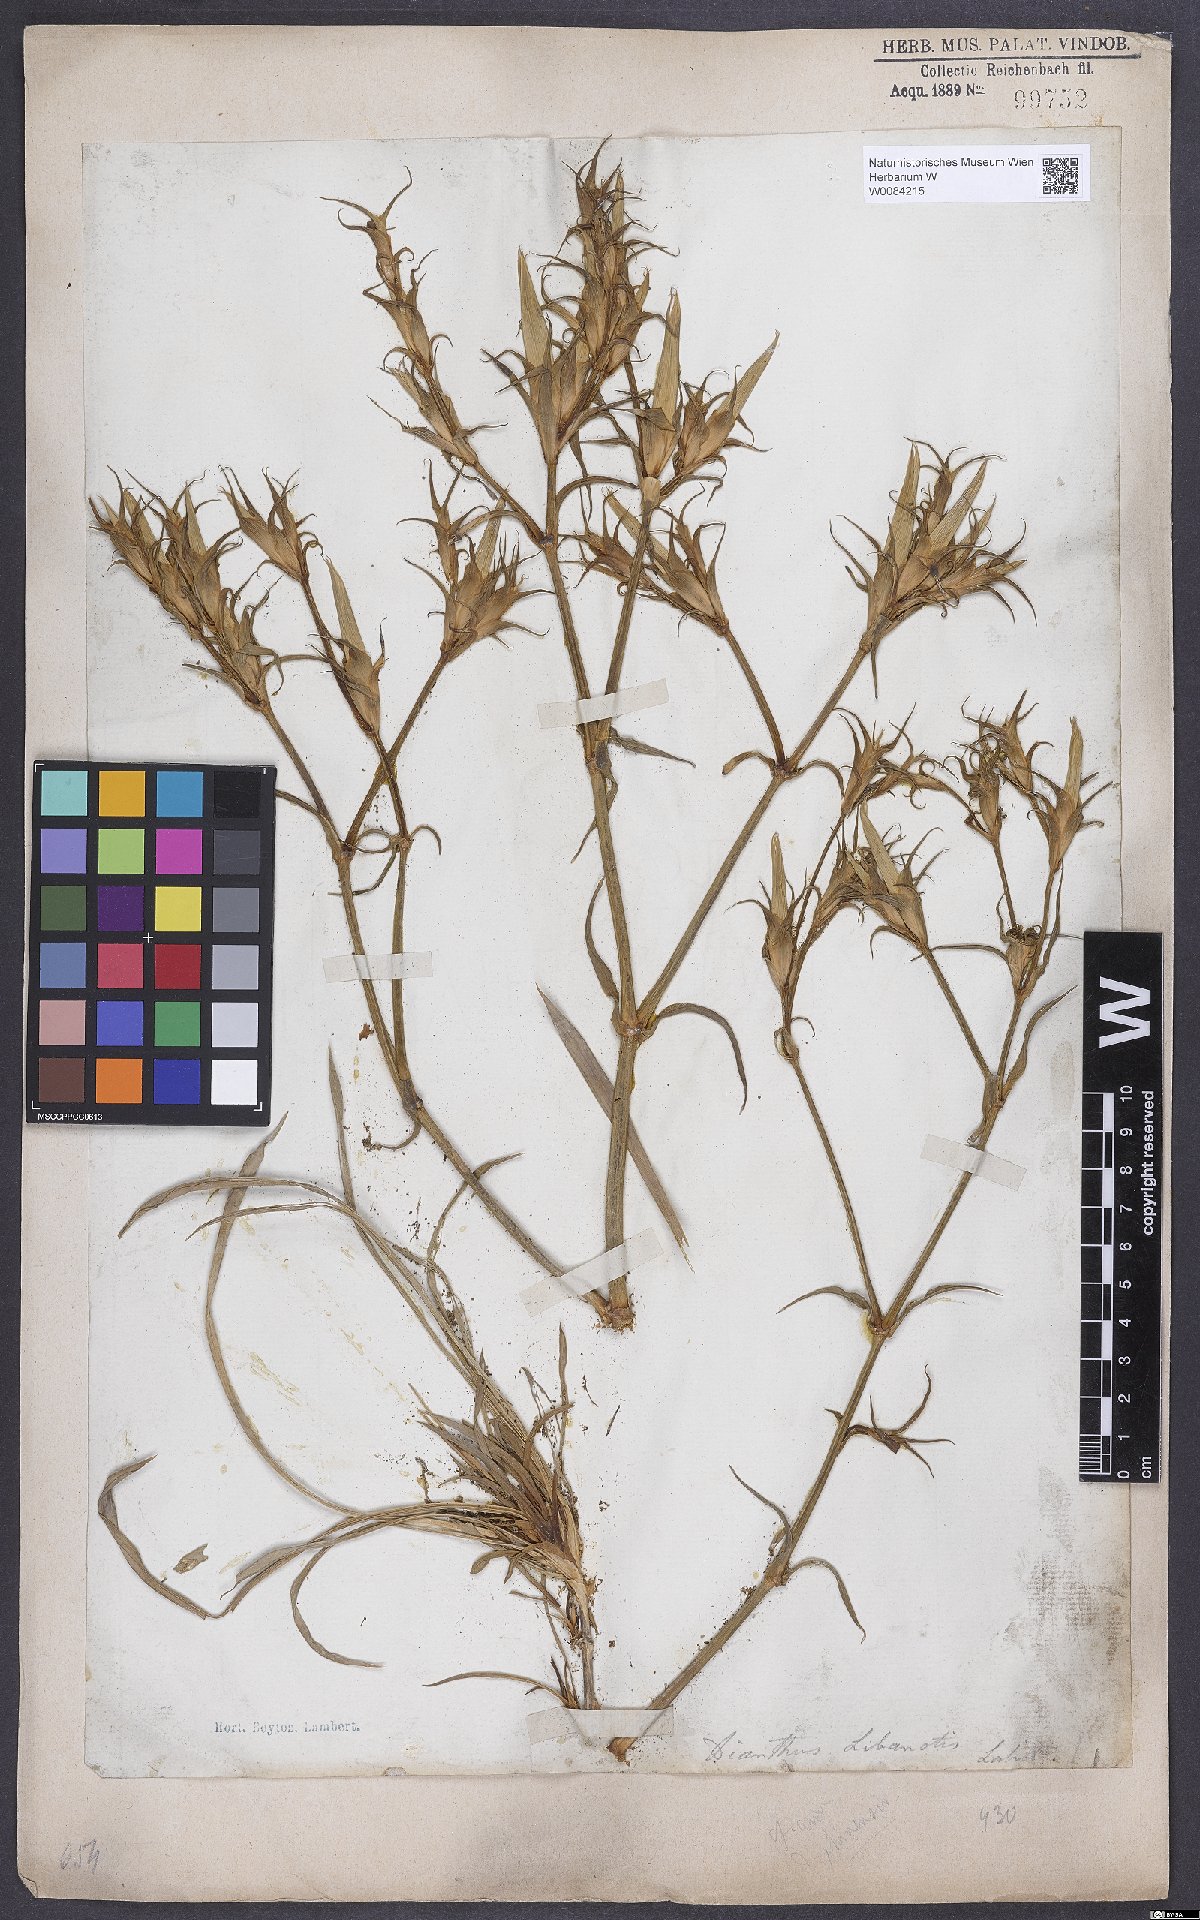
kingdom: Plantae
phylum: Tracheophyta
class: Magnoliopsida
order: Caryophyllales
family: Caryophyllaceae
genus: Dianthus
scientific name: Dianthus libanotis
